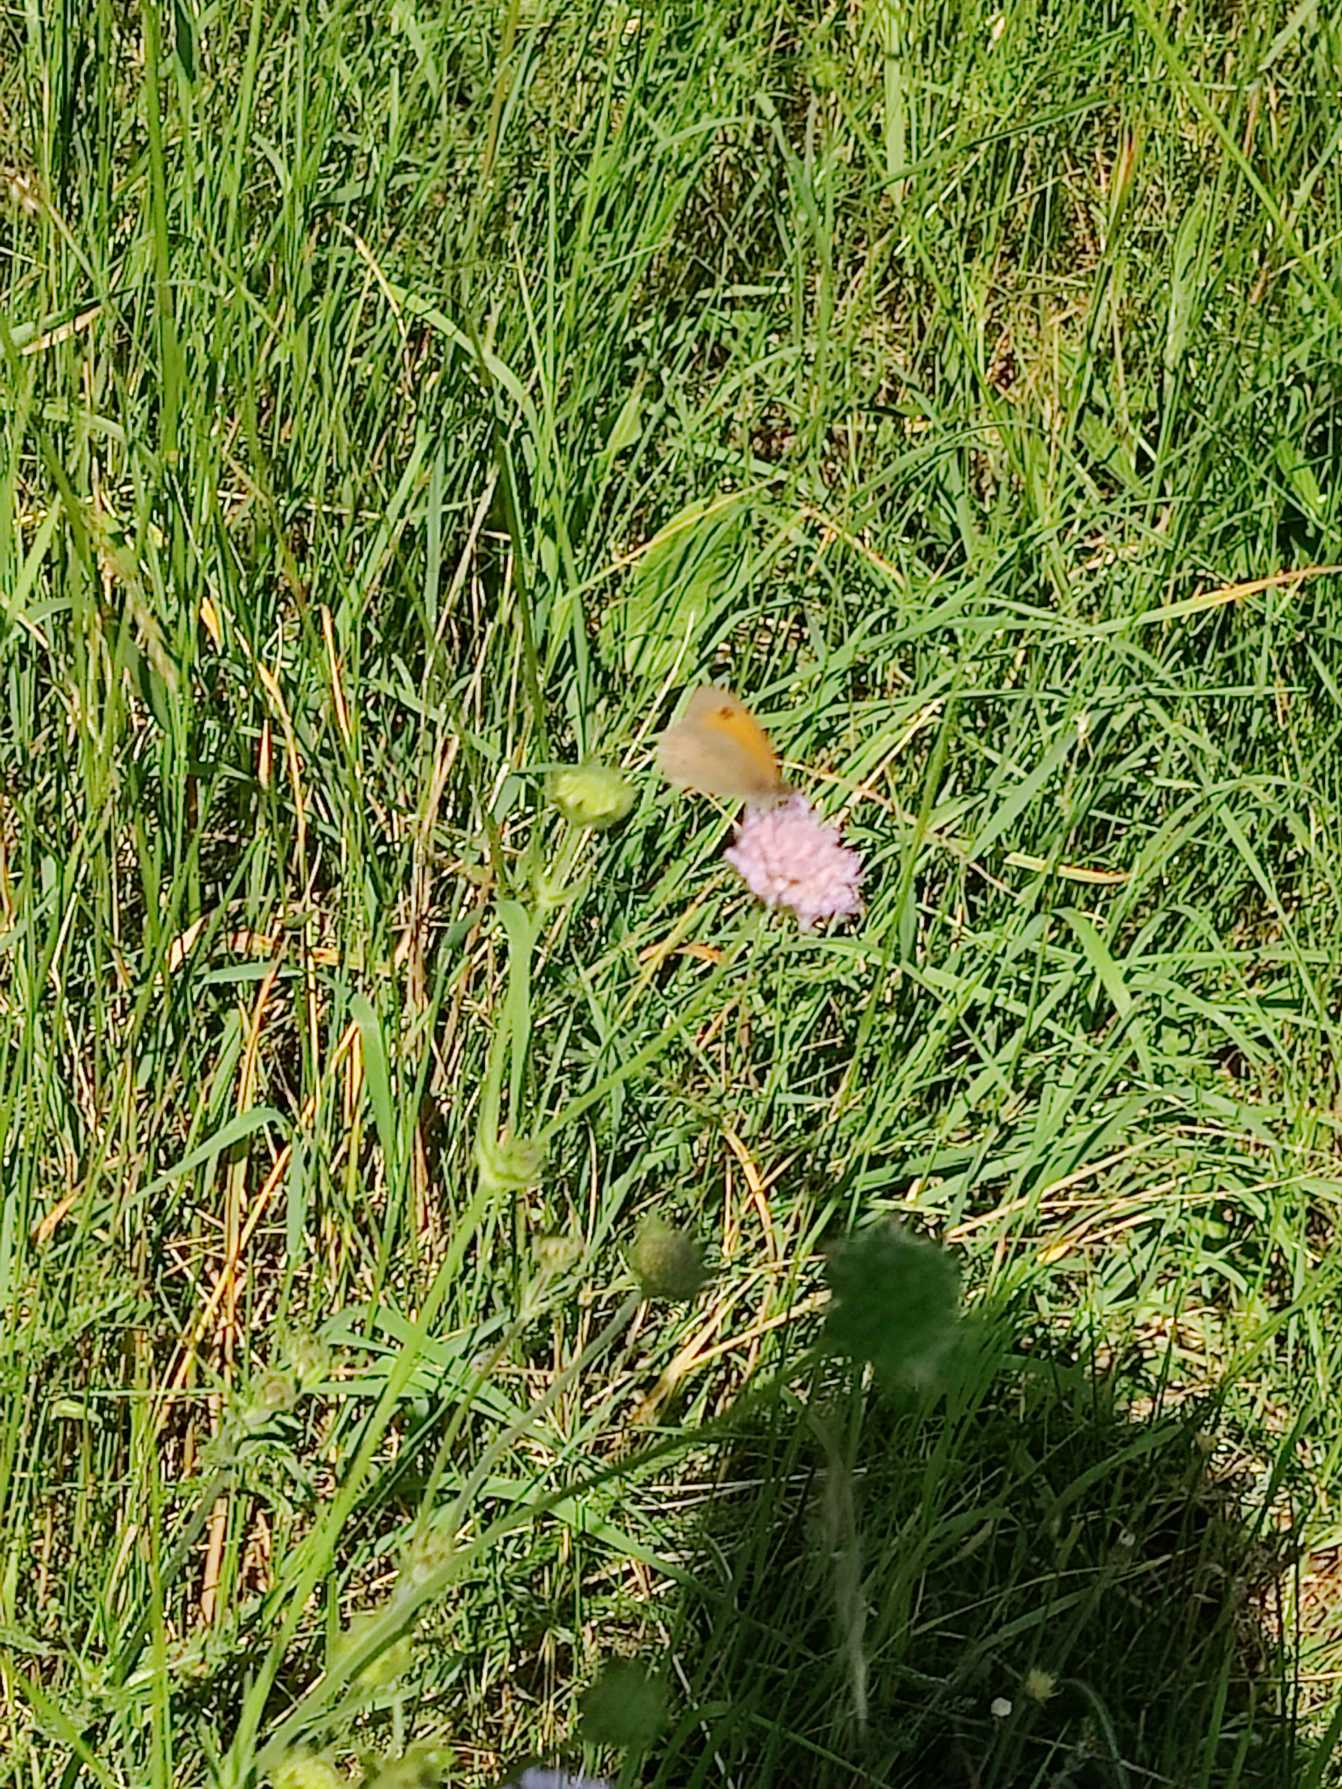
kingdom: Animalia
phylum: Arthropoda
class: Insecta
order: Lepidoptera
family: Nymphalidae
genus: Maniola
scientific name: Maniola jurtina
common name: Græsrandøje
